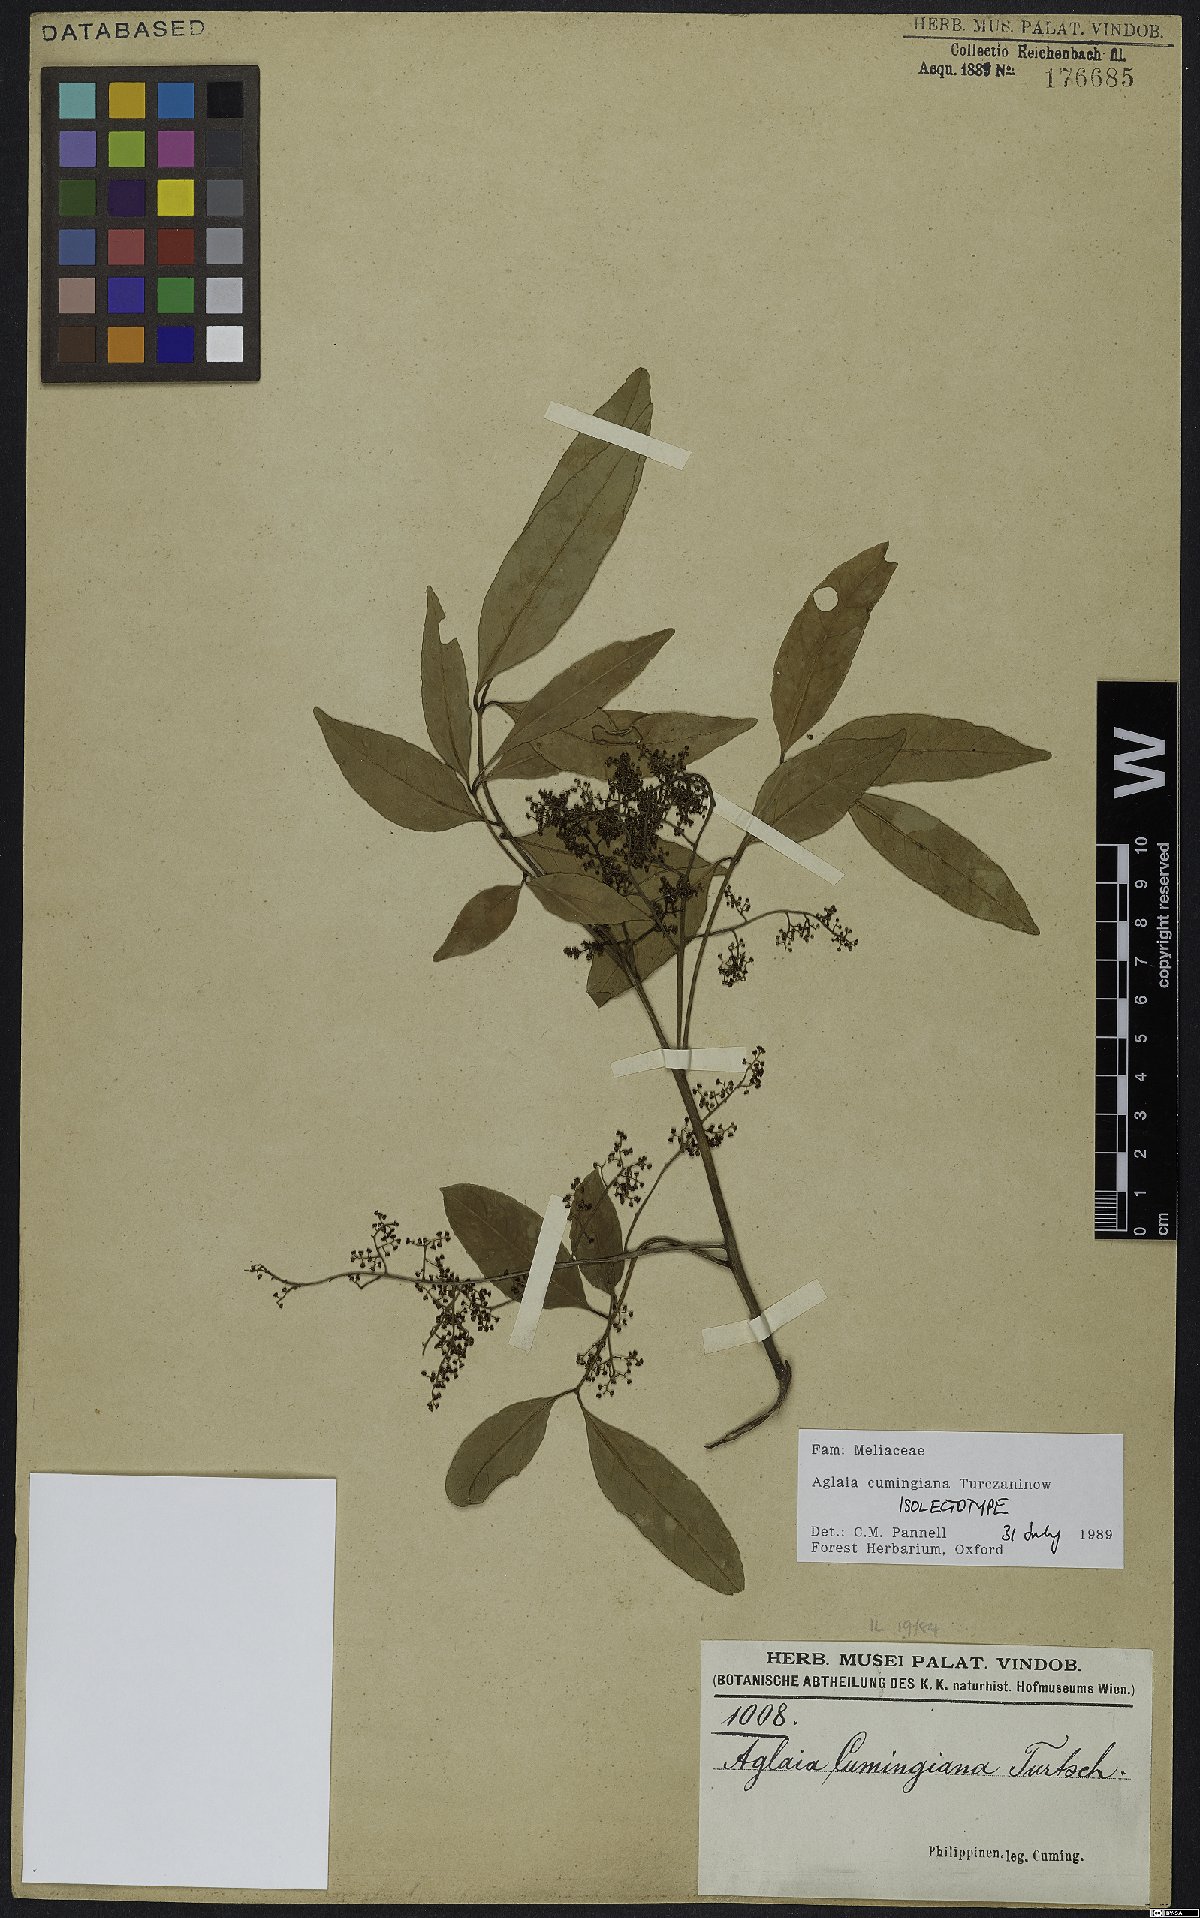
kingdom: Plantae
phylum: Tracheophyta
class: Magnoliopsida
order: Sapindales
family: Meliaceae
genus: Aglaia
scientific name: Aglaia cumingiana
